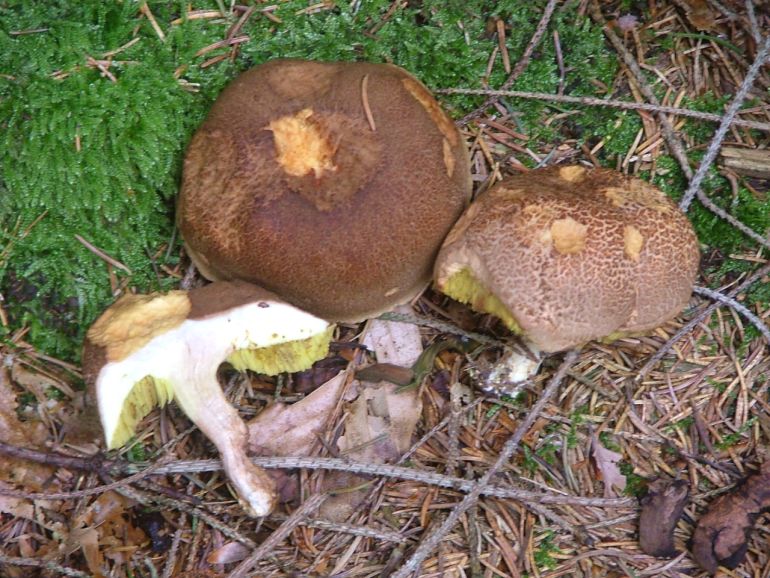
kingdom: Fungi
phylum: Basidiomycota
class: Agaricomycetes
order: Boletales
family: Boletaceae
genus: Xerocomellus
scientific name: Xerocomellus chrysenteron
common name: rødsprukken rørhat
